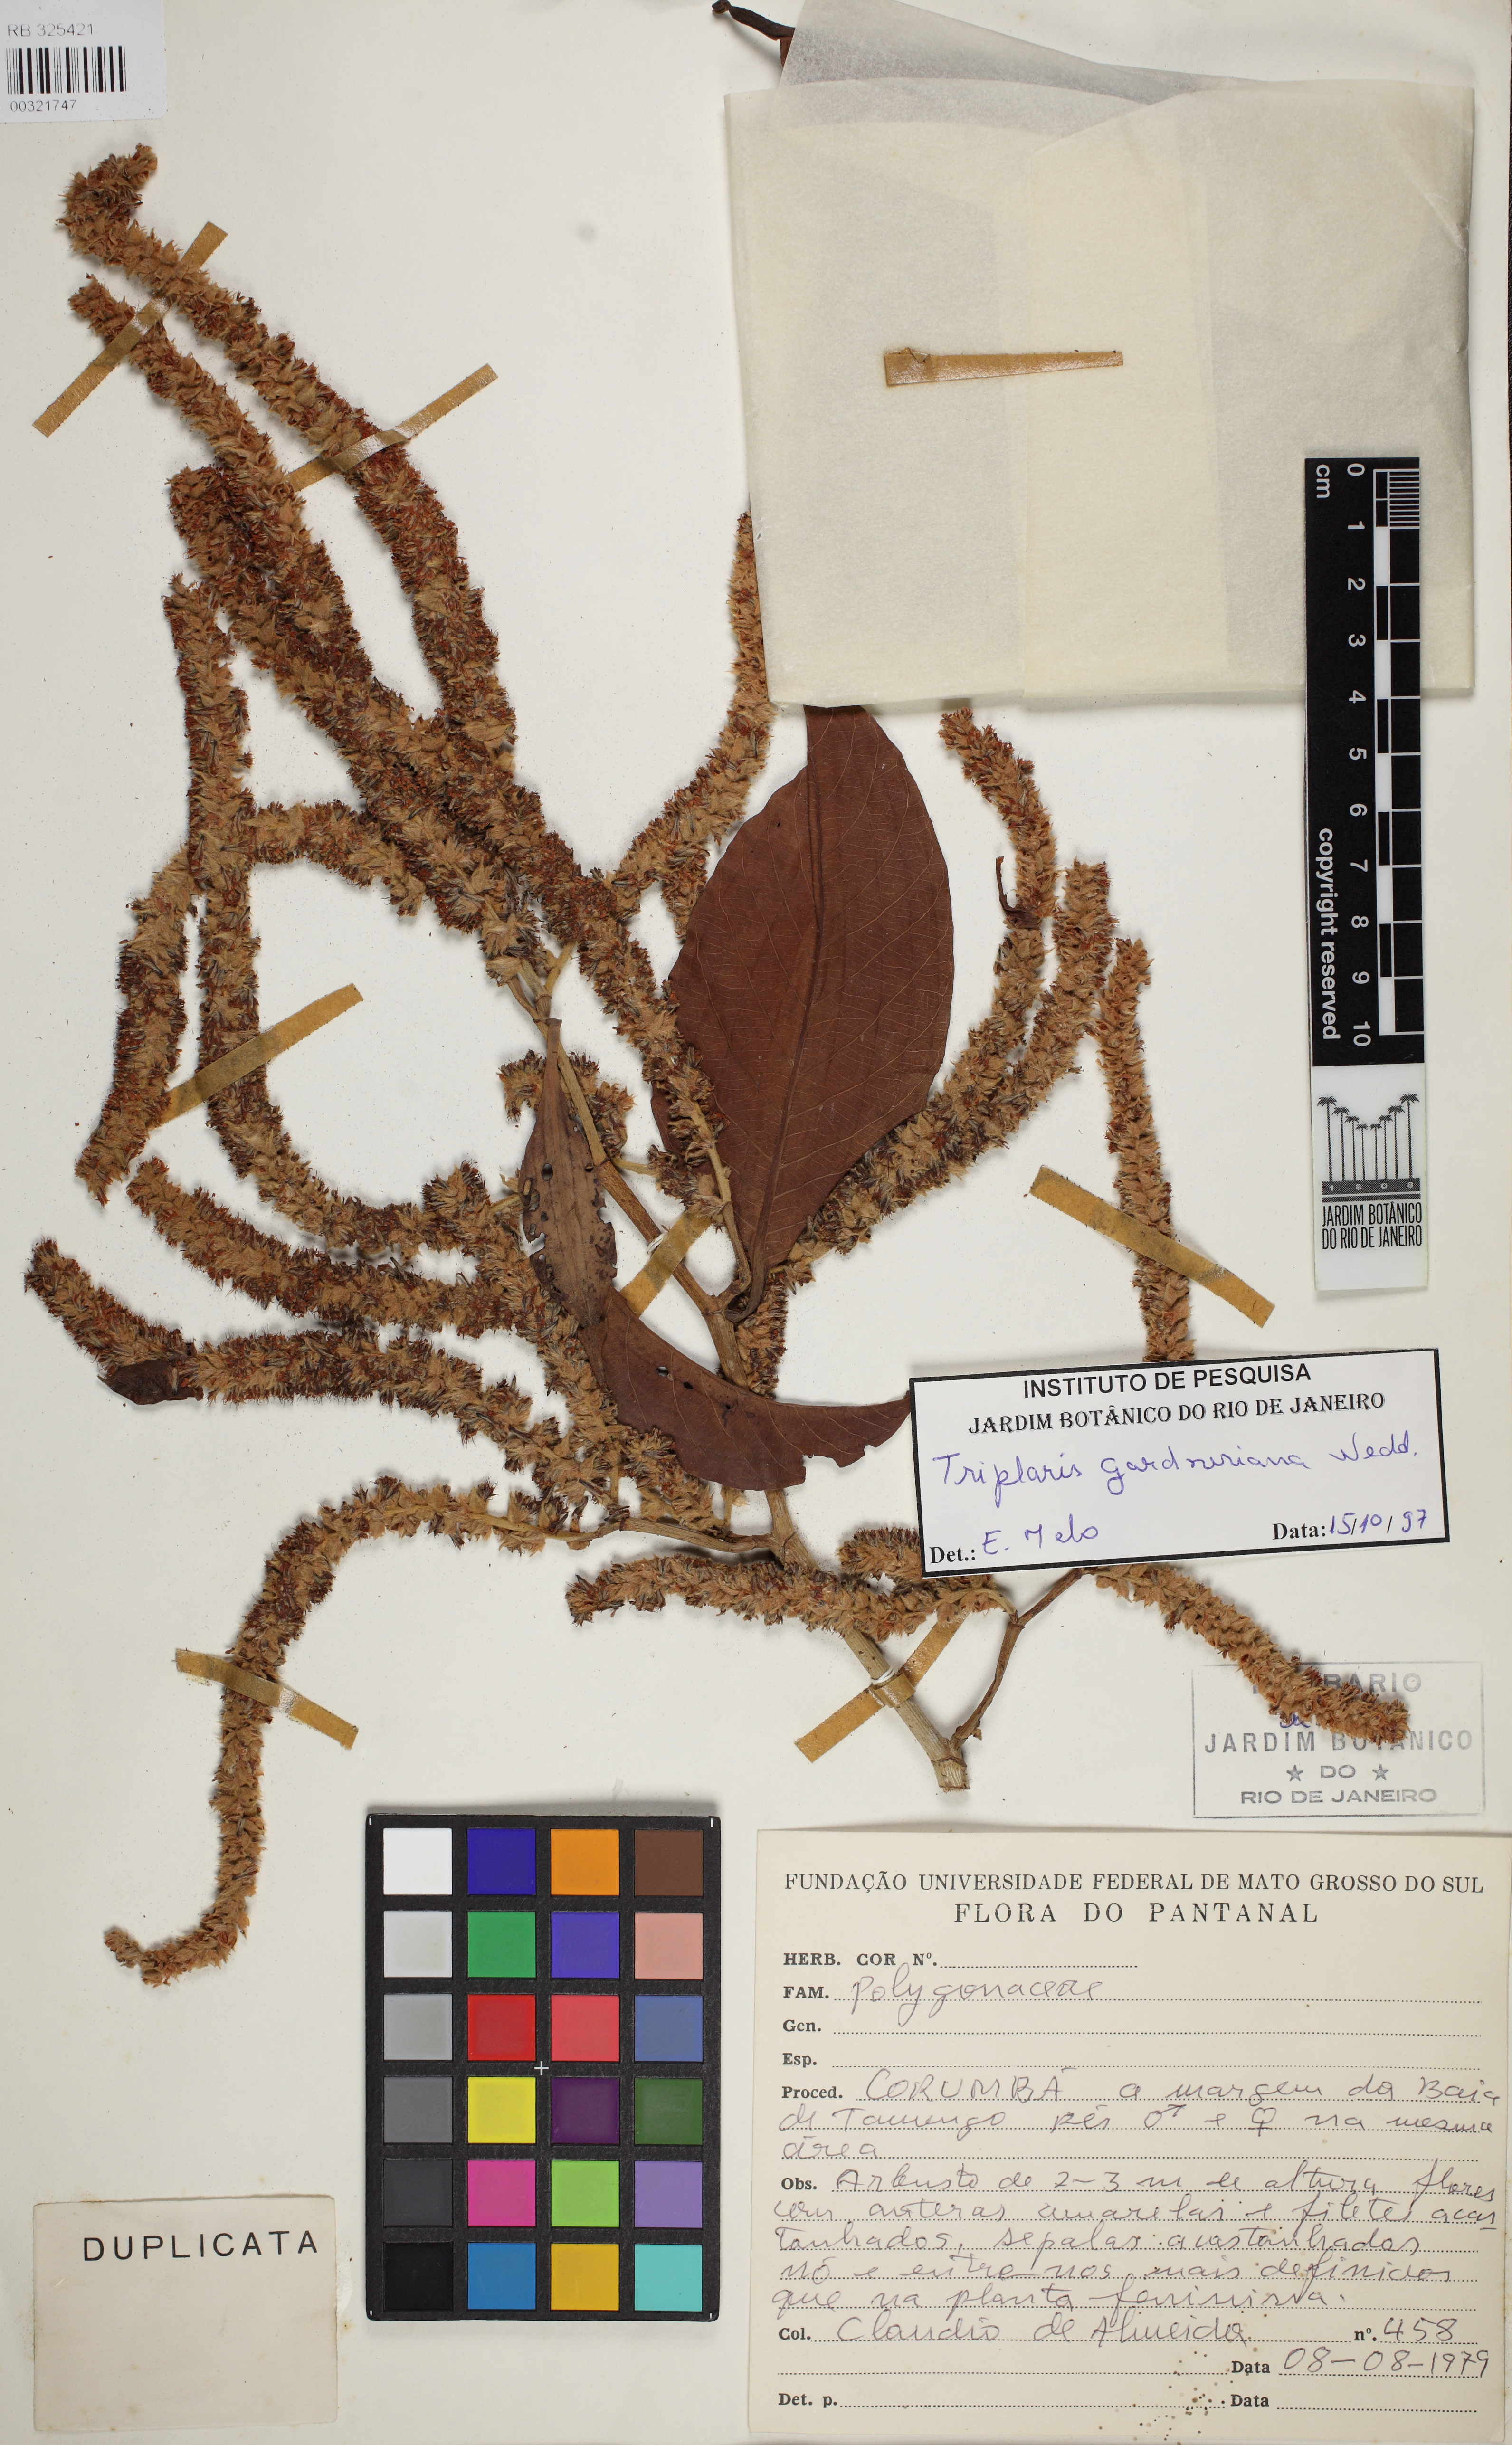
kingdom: Plantae
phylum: Tracheophyta
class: Magnoliopsida
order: Caryophyllales
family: Polygonaceae
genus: Triplaris
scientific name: Triplaris gardneriana
